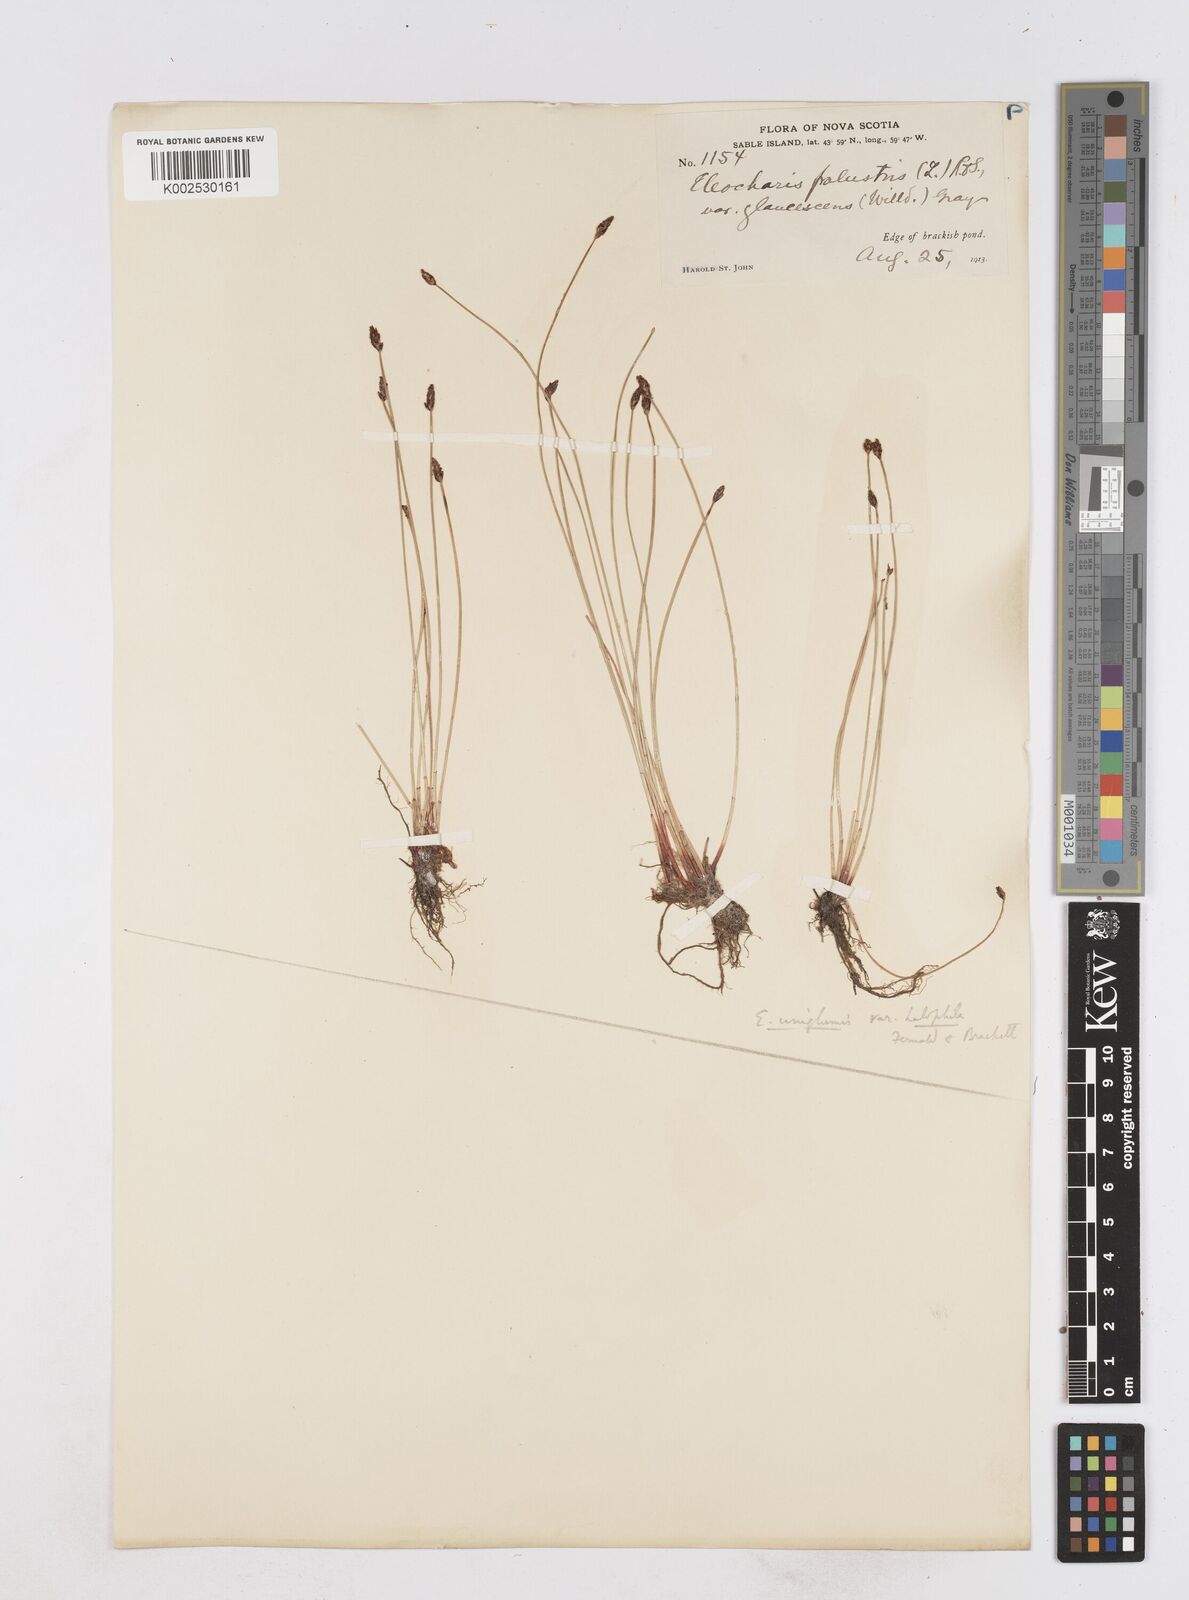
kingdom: Plantae
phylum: Tracheophyta
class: Liliopsida
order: Poales
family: Cyperaceae
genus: Eleocharis
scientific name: Eleocharis uniglumis
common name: Slender spike-rush
